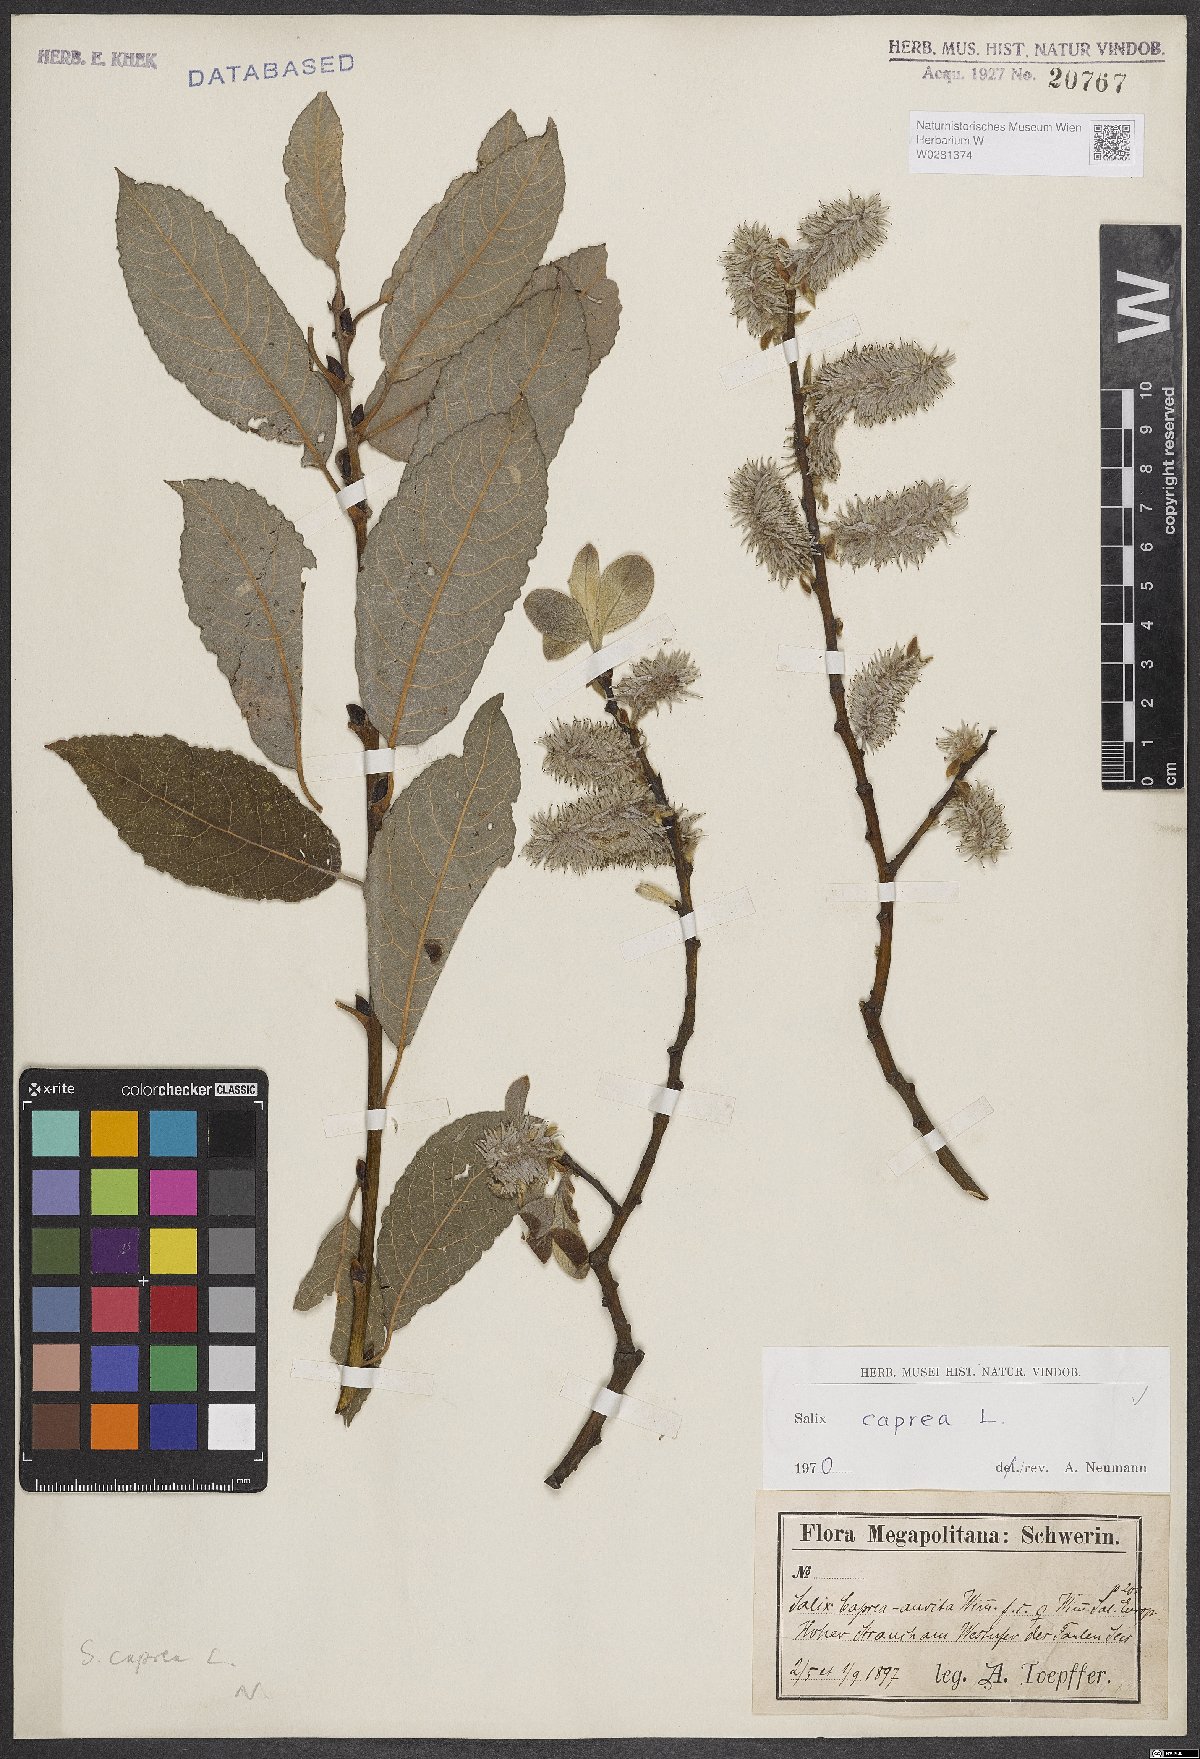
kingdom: Plantae
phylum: Tracheophyta
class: Magnoliopsida
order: Malpighiales
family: Salicaceae
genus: Salix
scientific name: Salix caprea
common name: Goat willow
